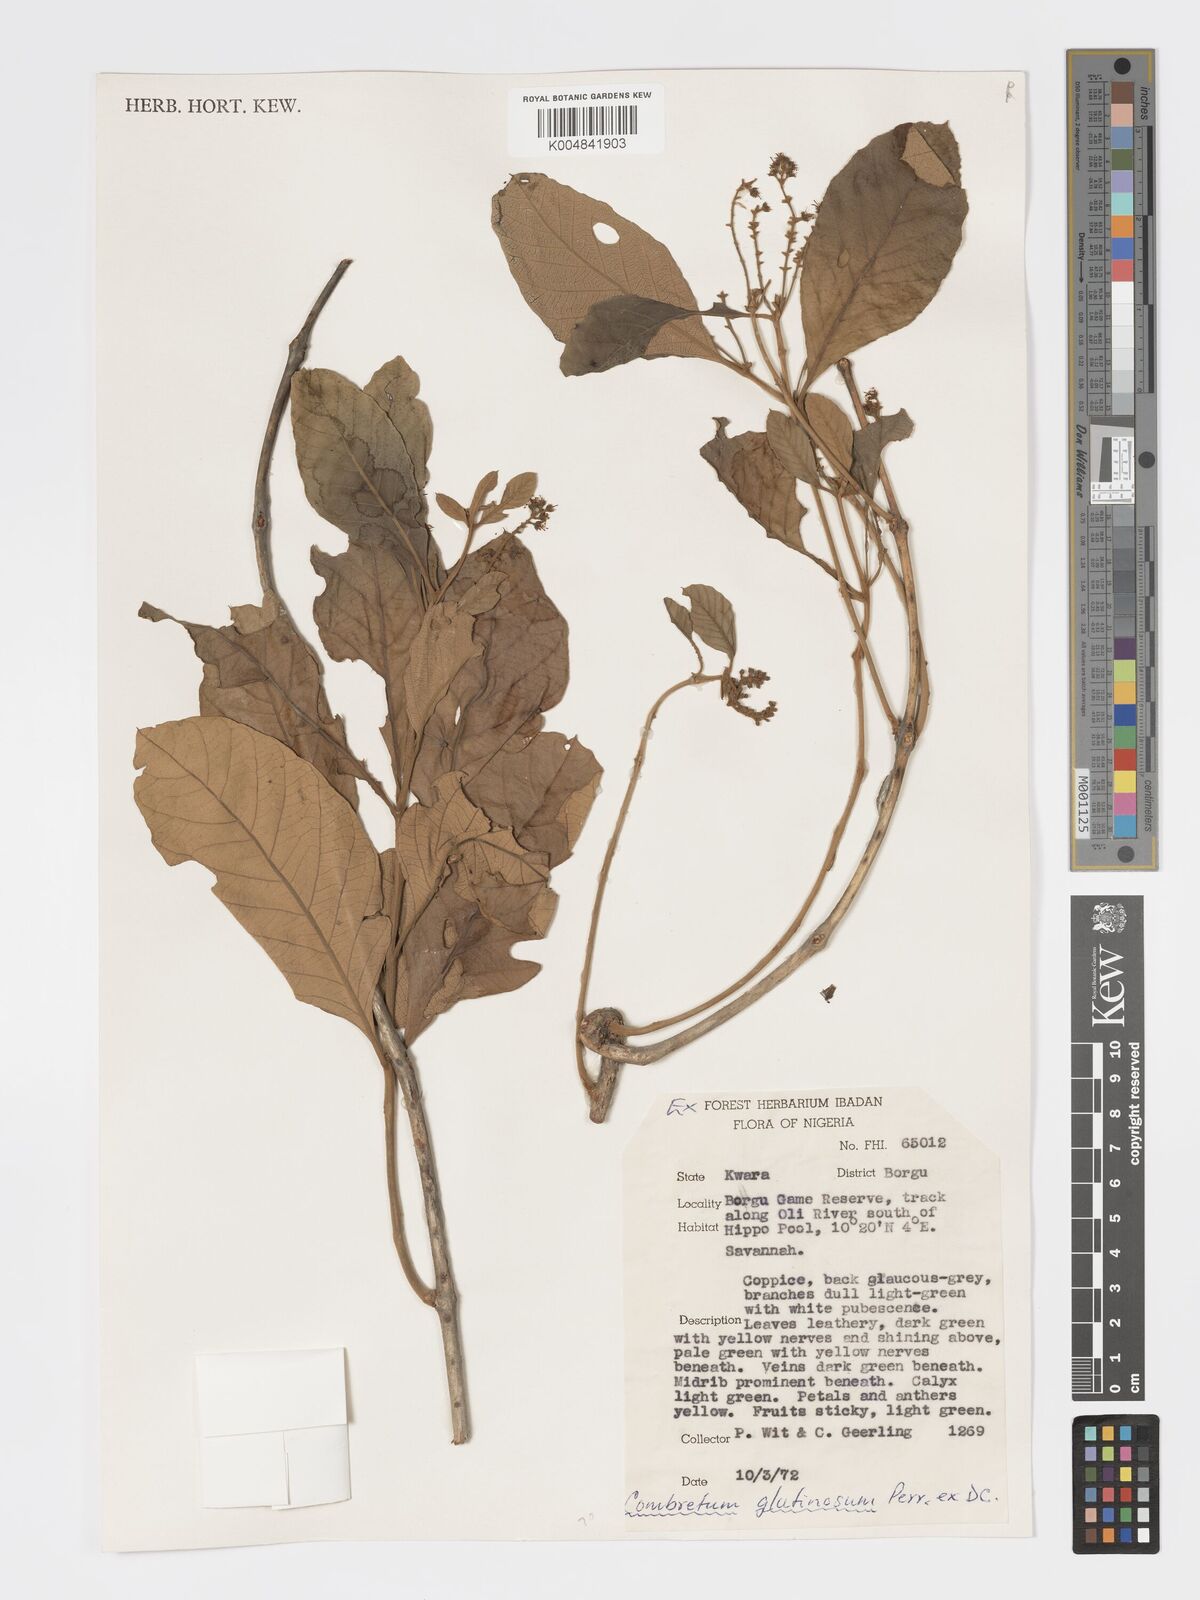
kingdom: Plantae
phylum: Tracheophyta
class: Magnoliopsida
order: Myrtales
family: Combretaceae
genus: Combretum
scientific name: Combretum
